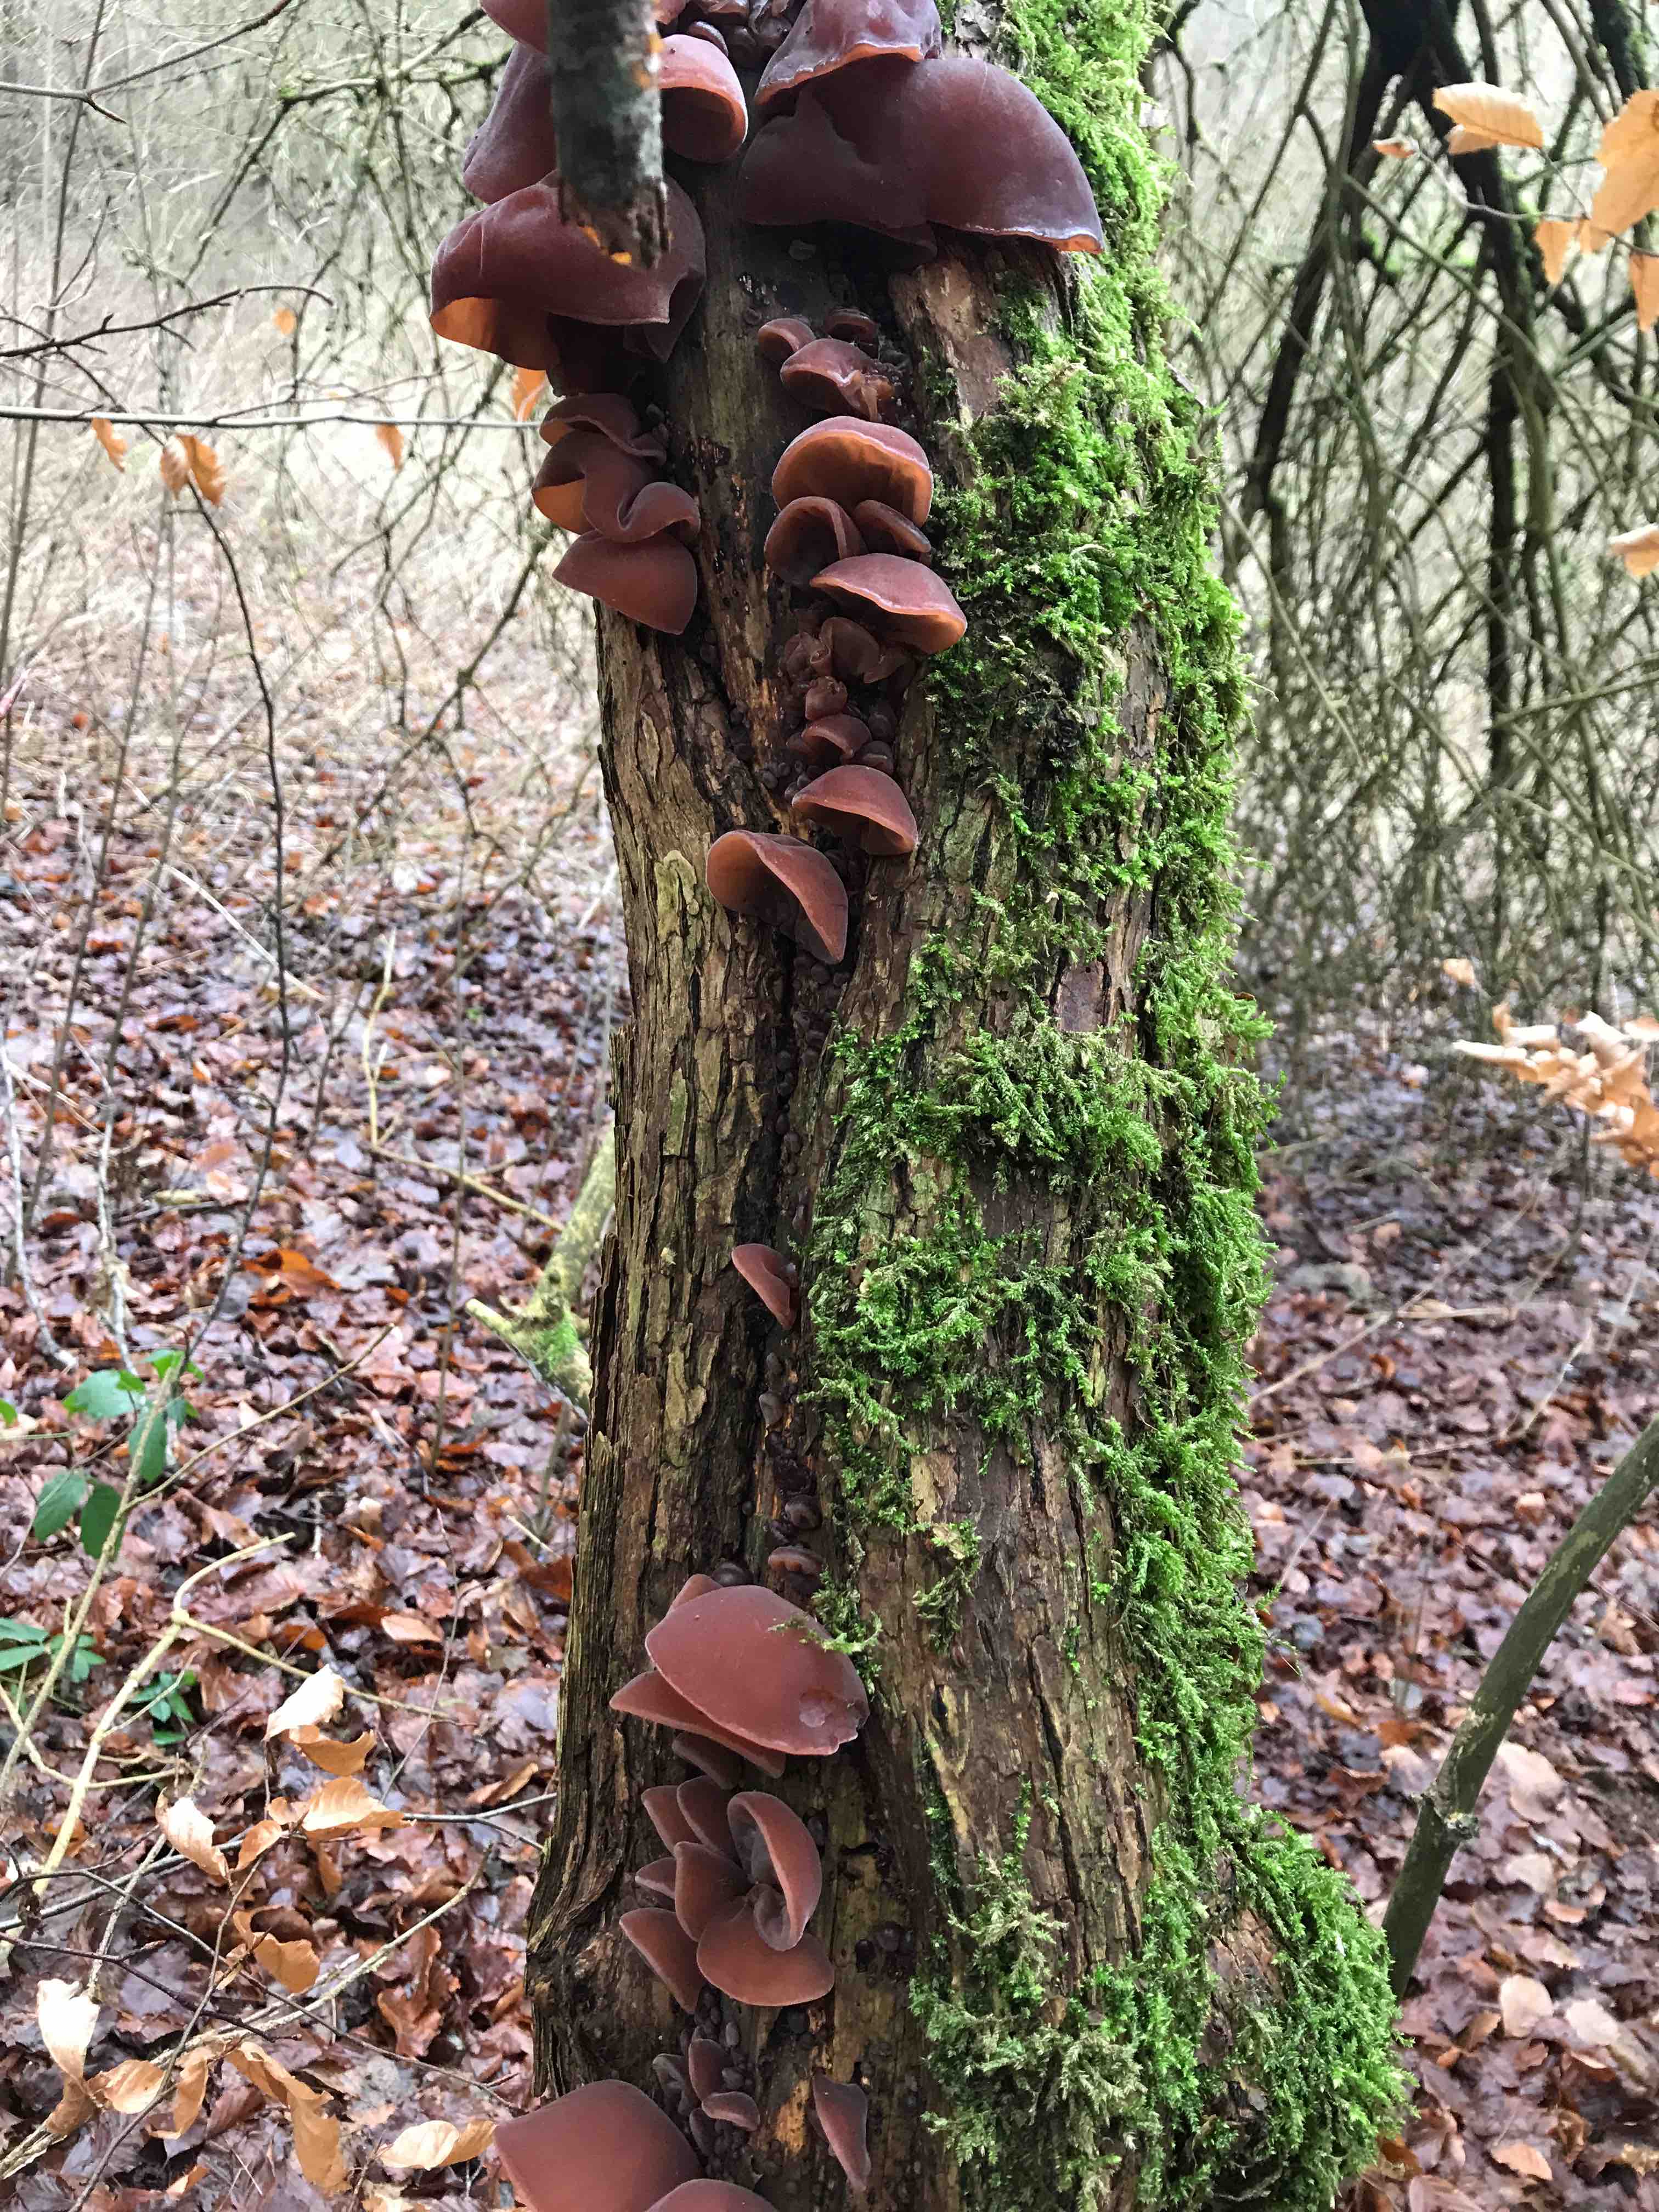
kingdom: Fungi
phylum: Basidiomycota
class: Agaricomycetes
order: Auriculariales
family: Auriculariaceae
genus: Auricularia
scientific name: Auricularia auricula-judae
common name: almindelig judasøre
